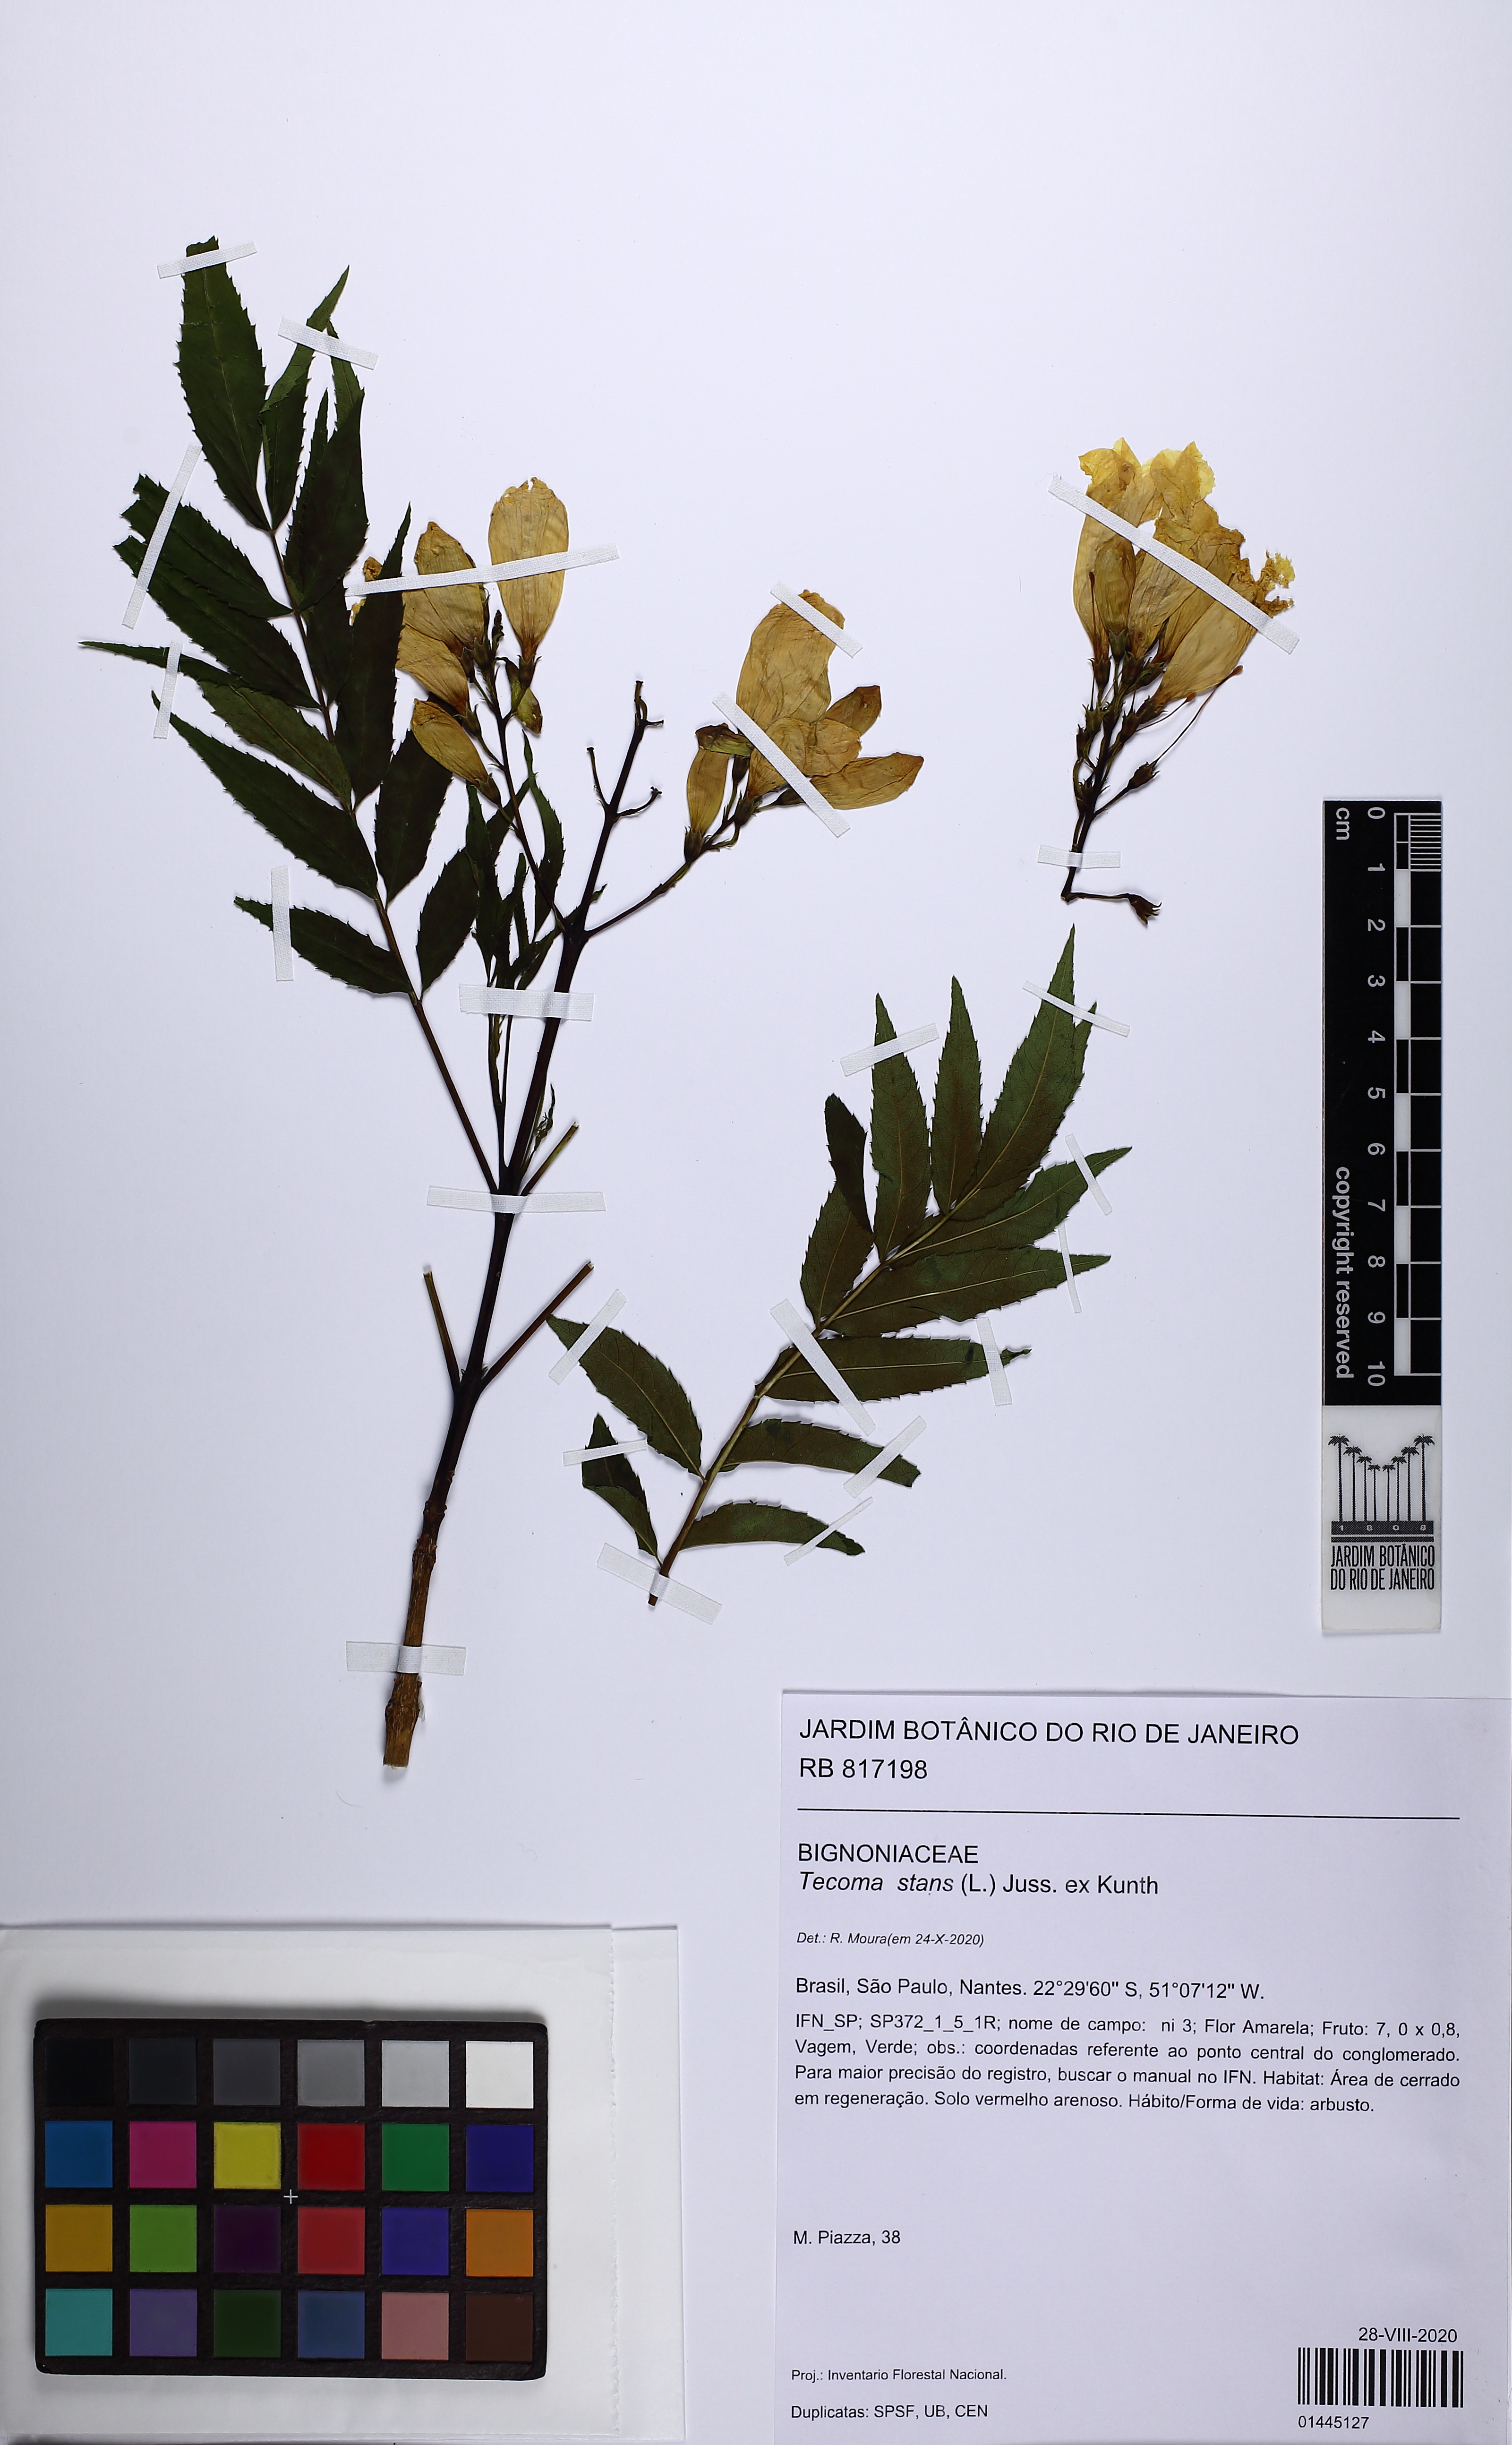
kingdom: Plantae
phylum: Tracheophyta
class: Magnoliopsida
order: Lamiales
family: Bignoniaceae
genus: Tecoma
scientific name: Tecoma stans
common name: Yellow trumpetbush
